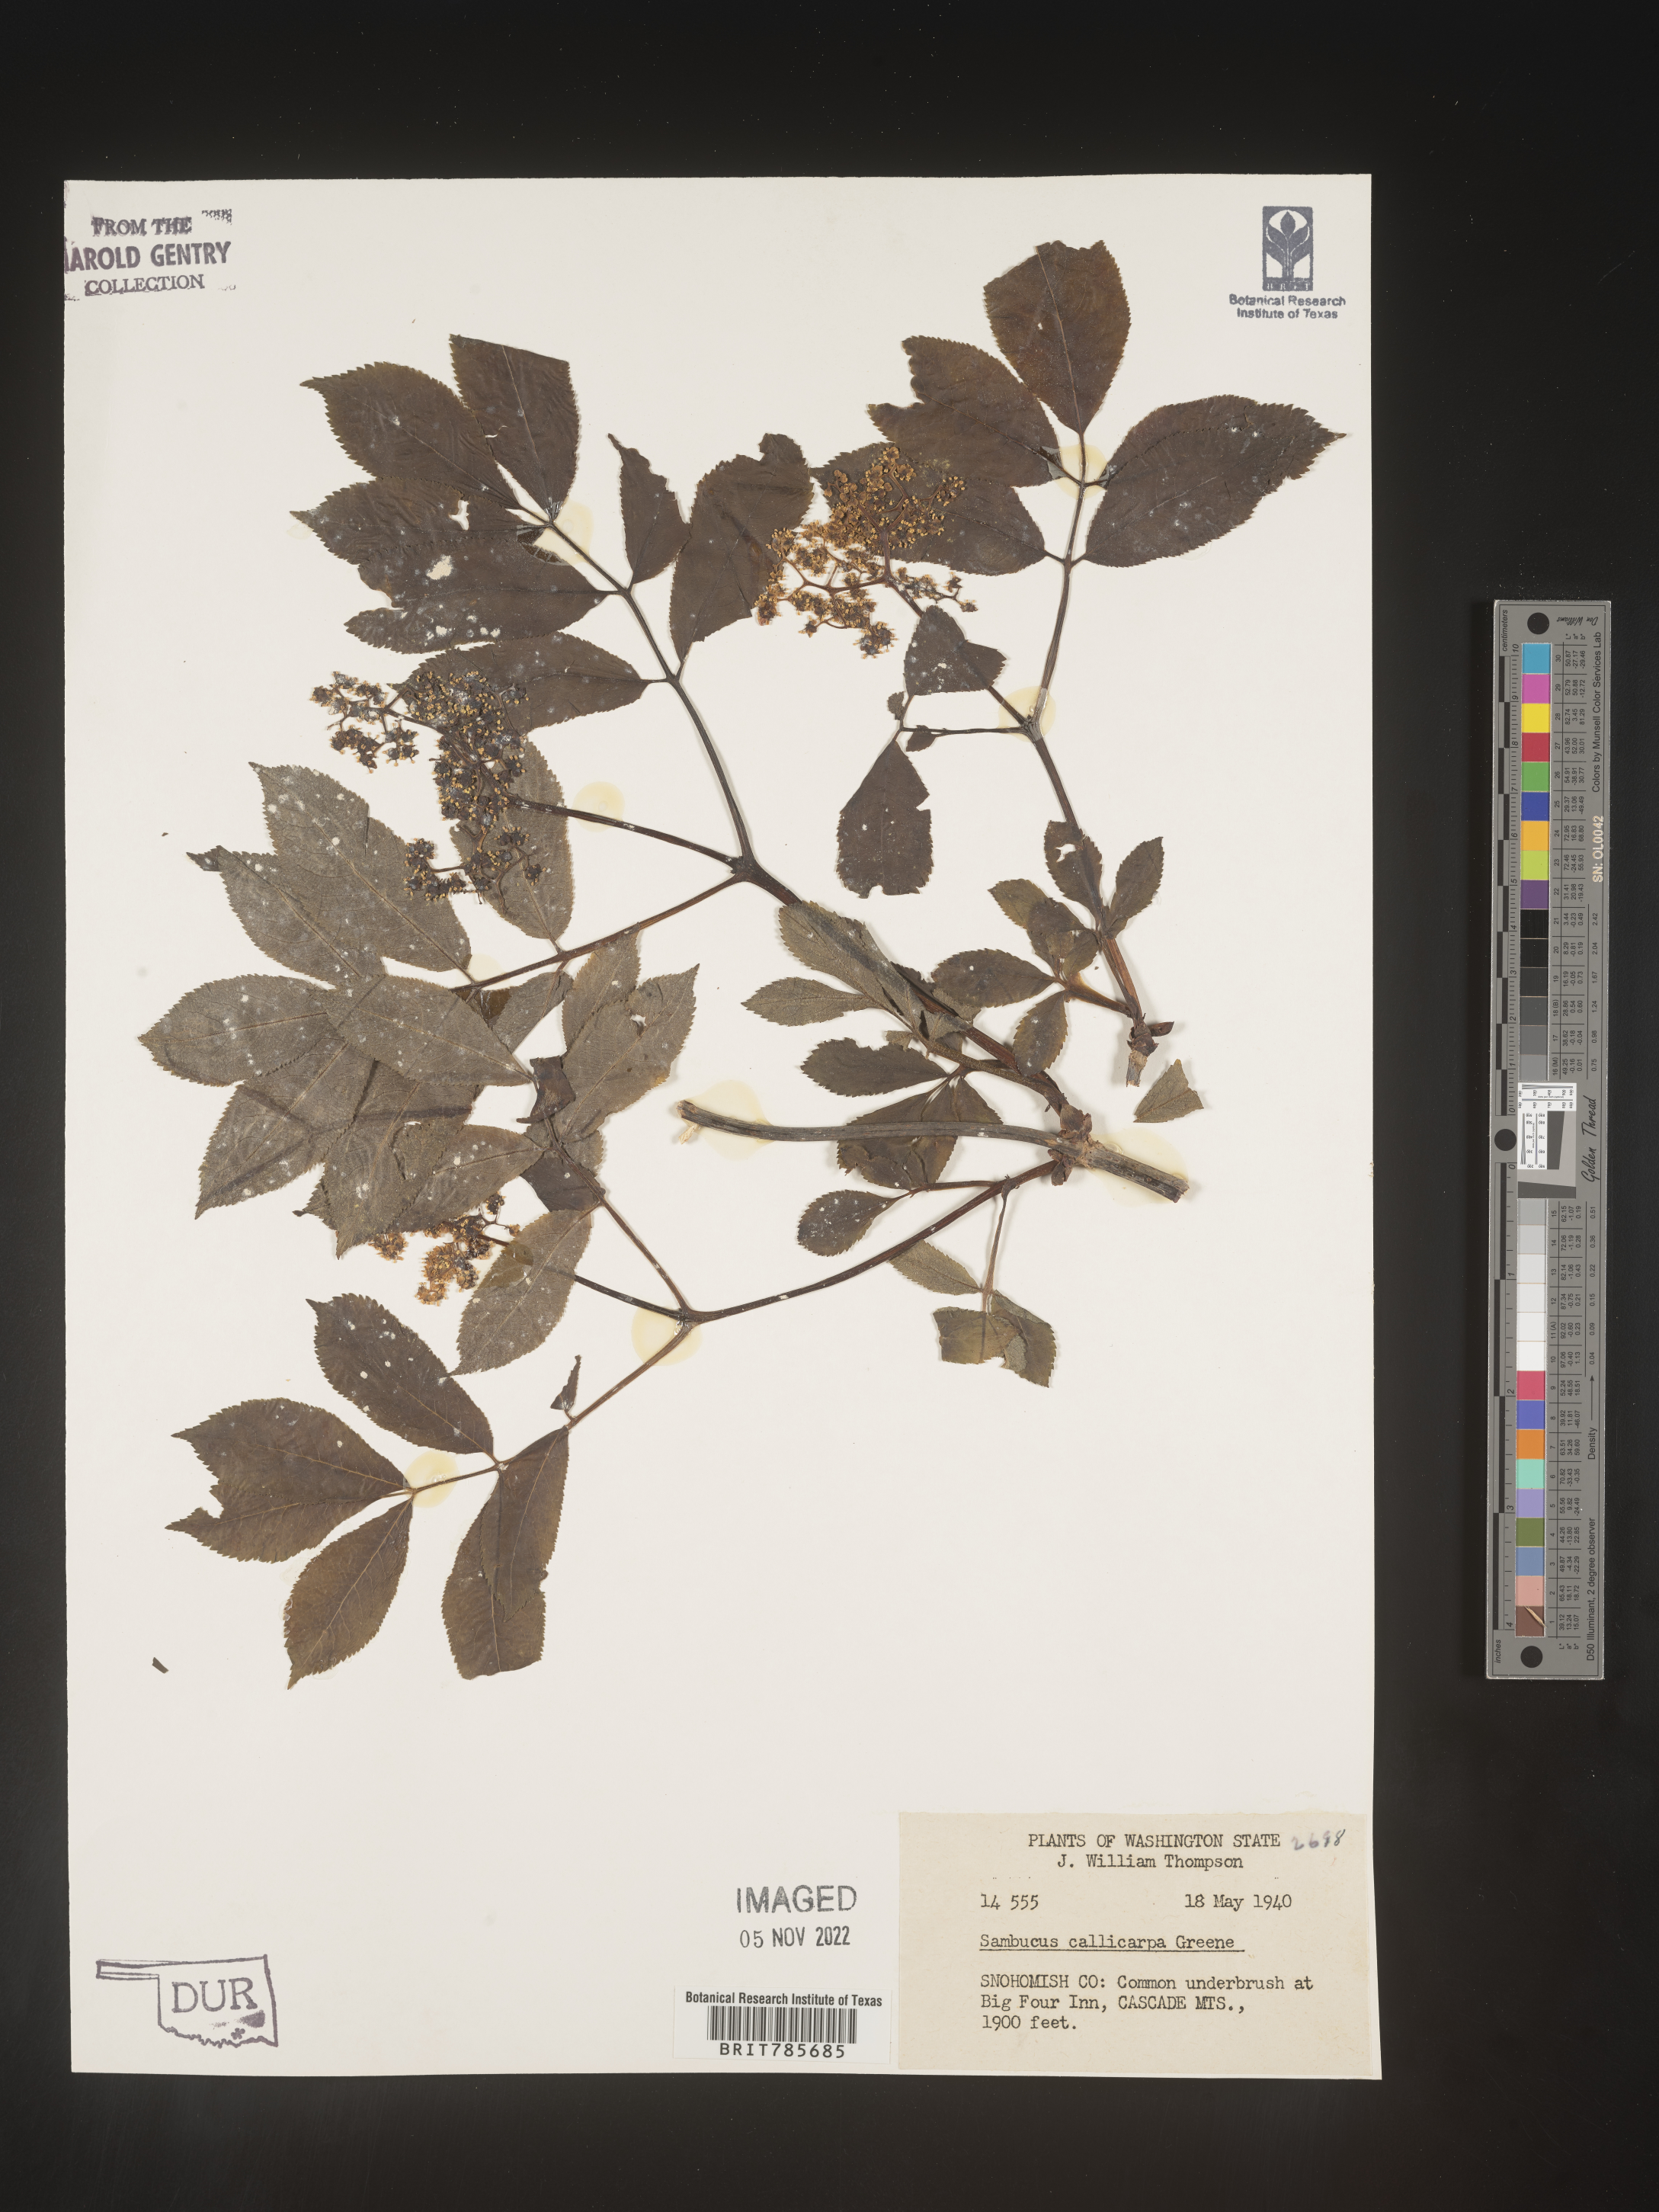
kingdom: Plantae
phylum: Tracheophyta
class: Magnoliopsida
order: Dipsacales
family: Viburnaceae
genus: Sambucus
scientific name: Sambucus racemosa
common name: Red-berried elder
